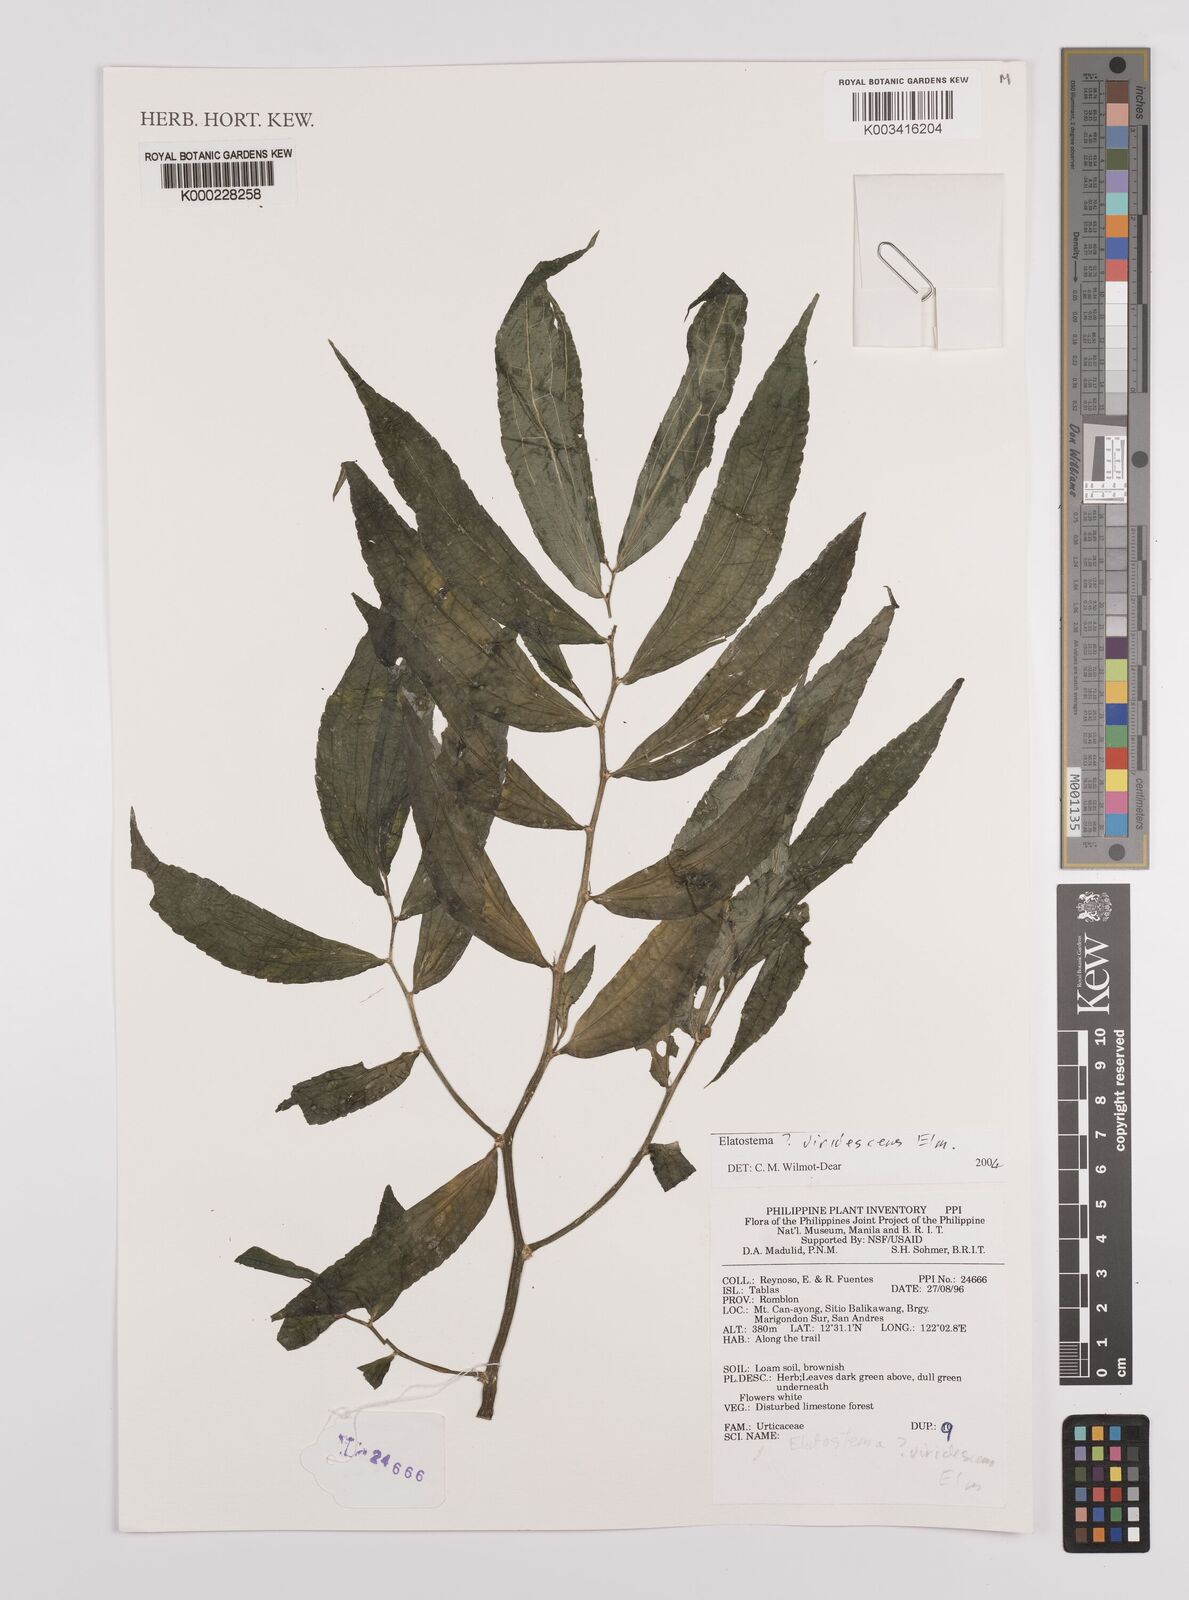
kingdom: Plantae
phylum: Tracheophyta
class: Magnoliopsida
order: Rosales
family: Urticaceae
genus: Elatostema
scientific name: Elatostema viridescens
